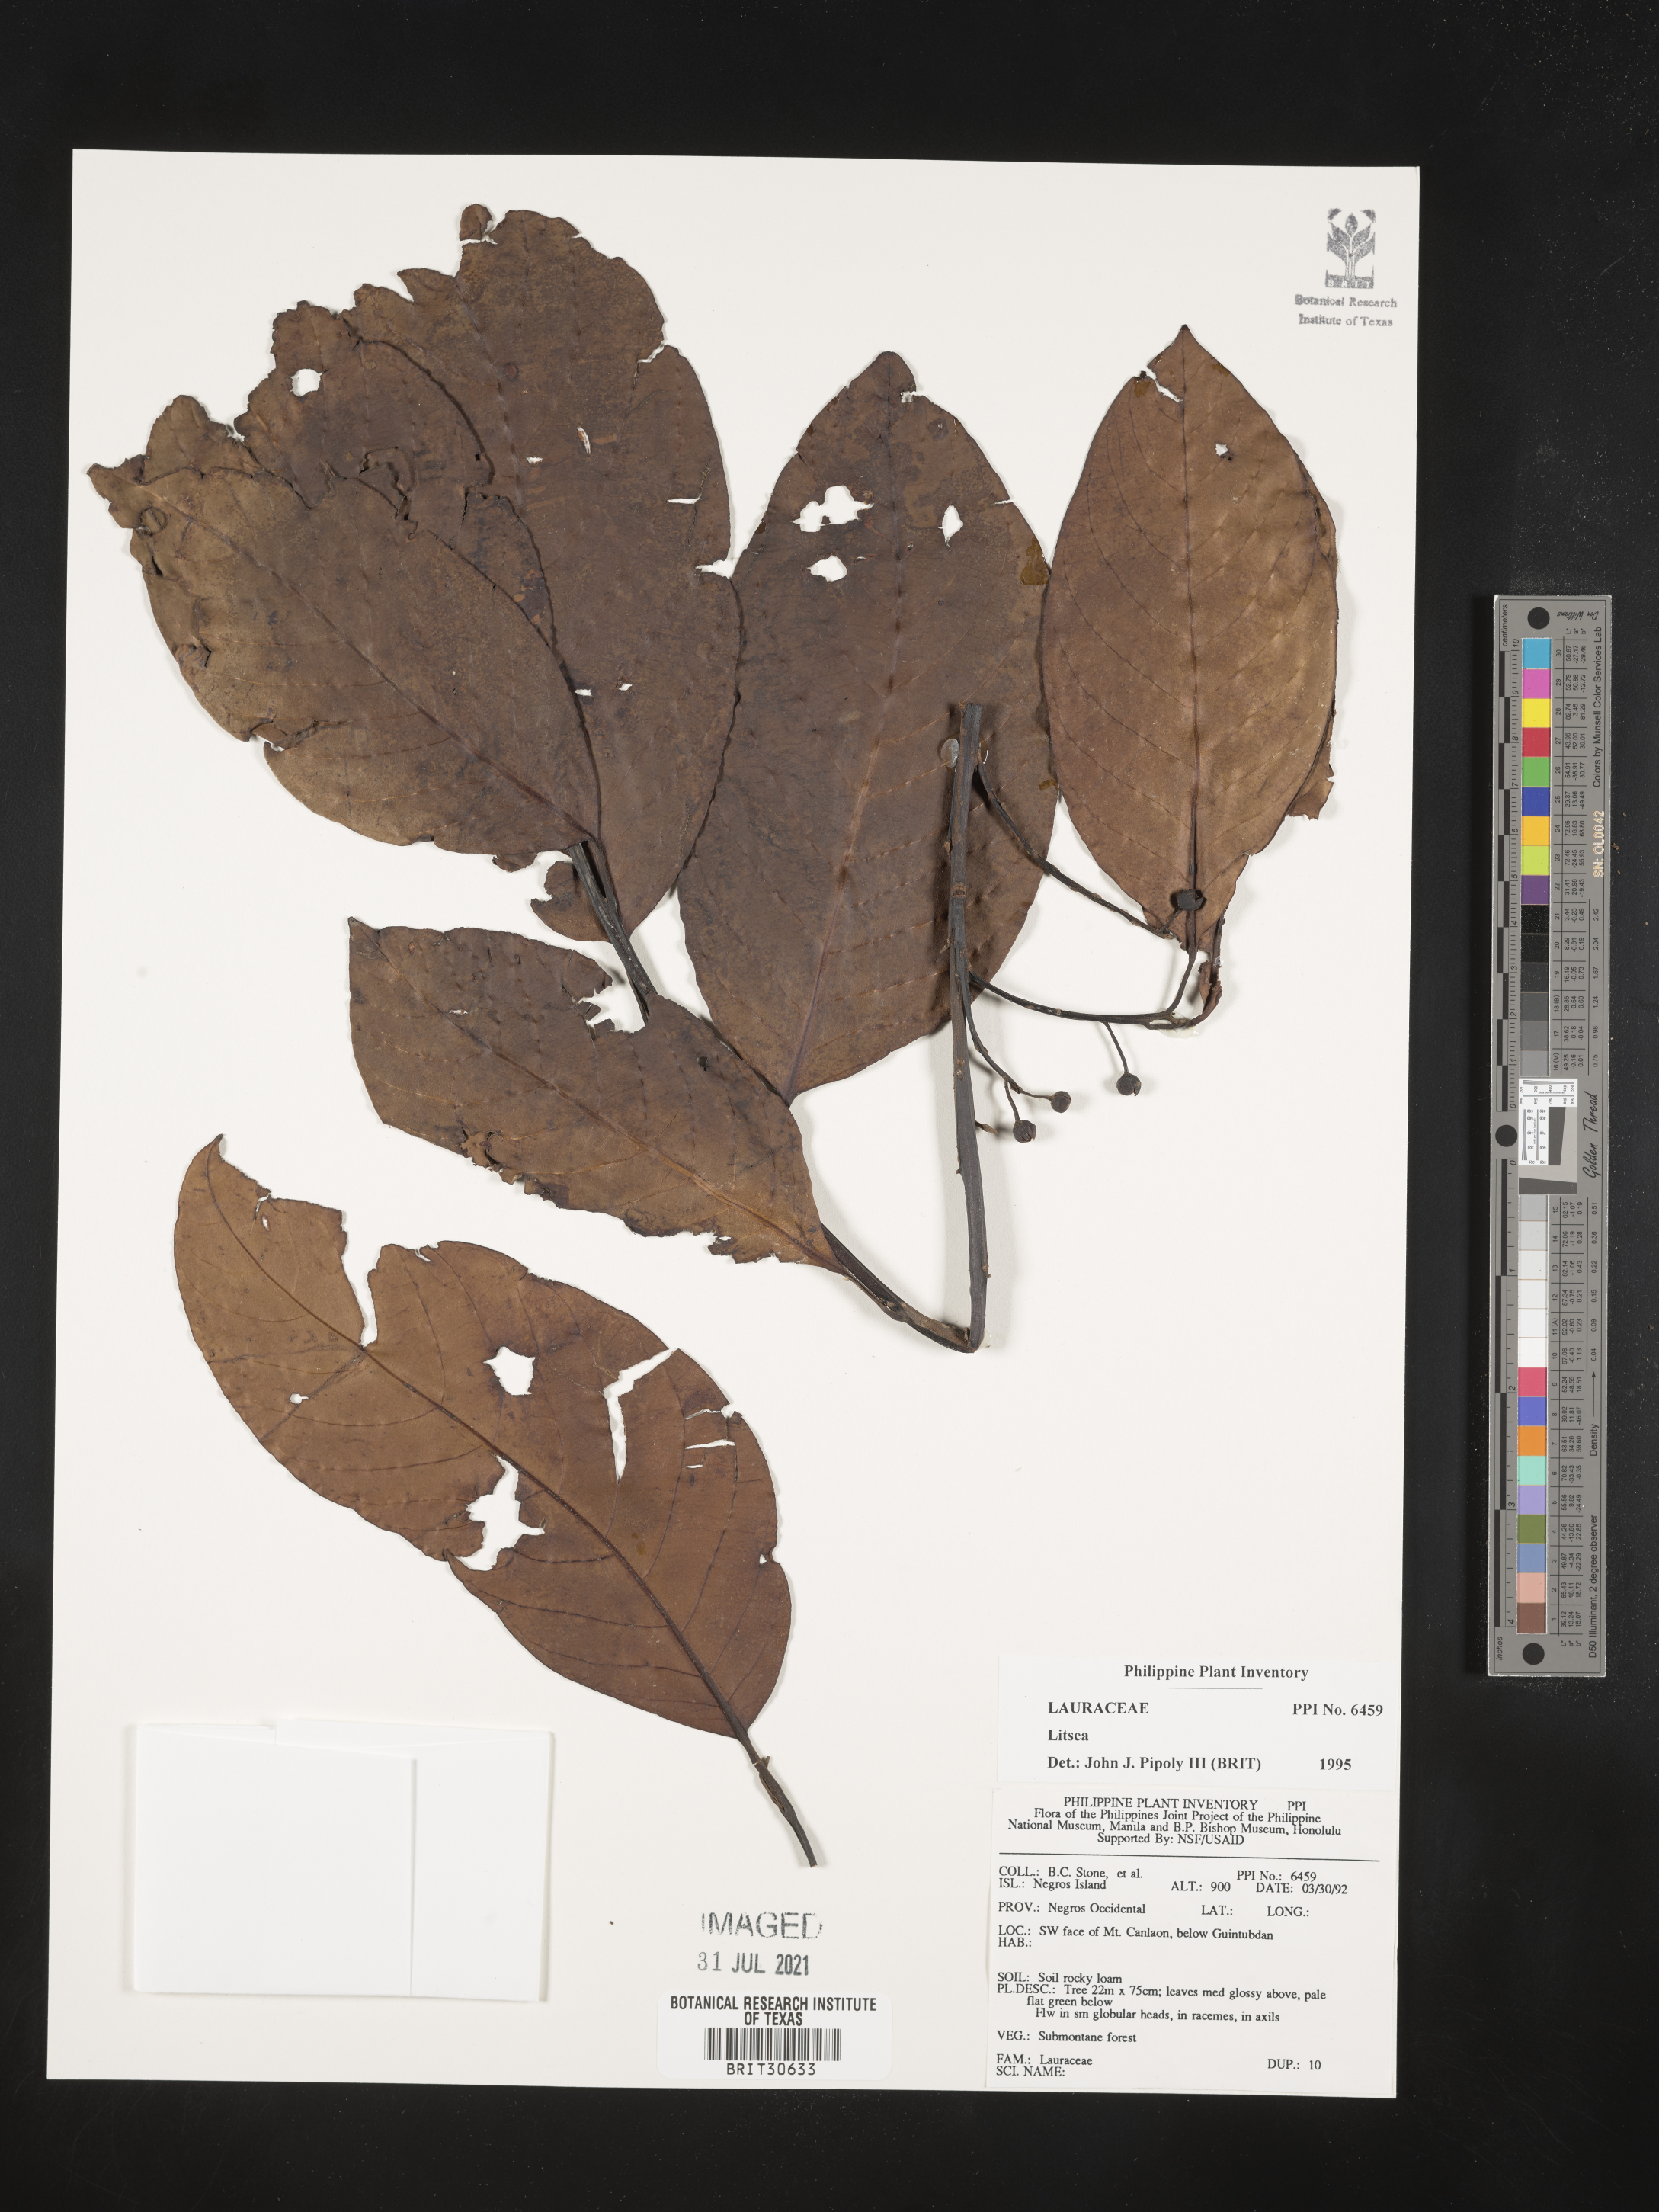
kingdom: Plantae
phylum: Tracheophyta
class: Magnoliopsida
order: Laurales
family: Lauraceae
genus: Litsea
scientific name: Litsea
